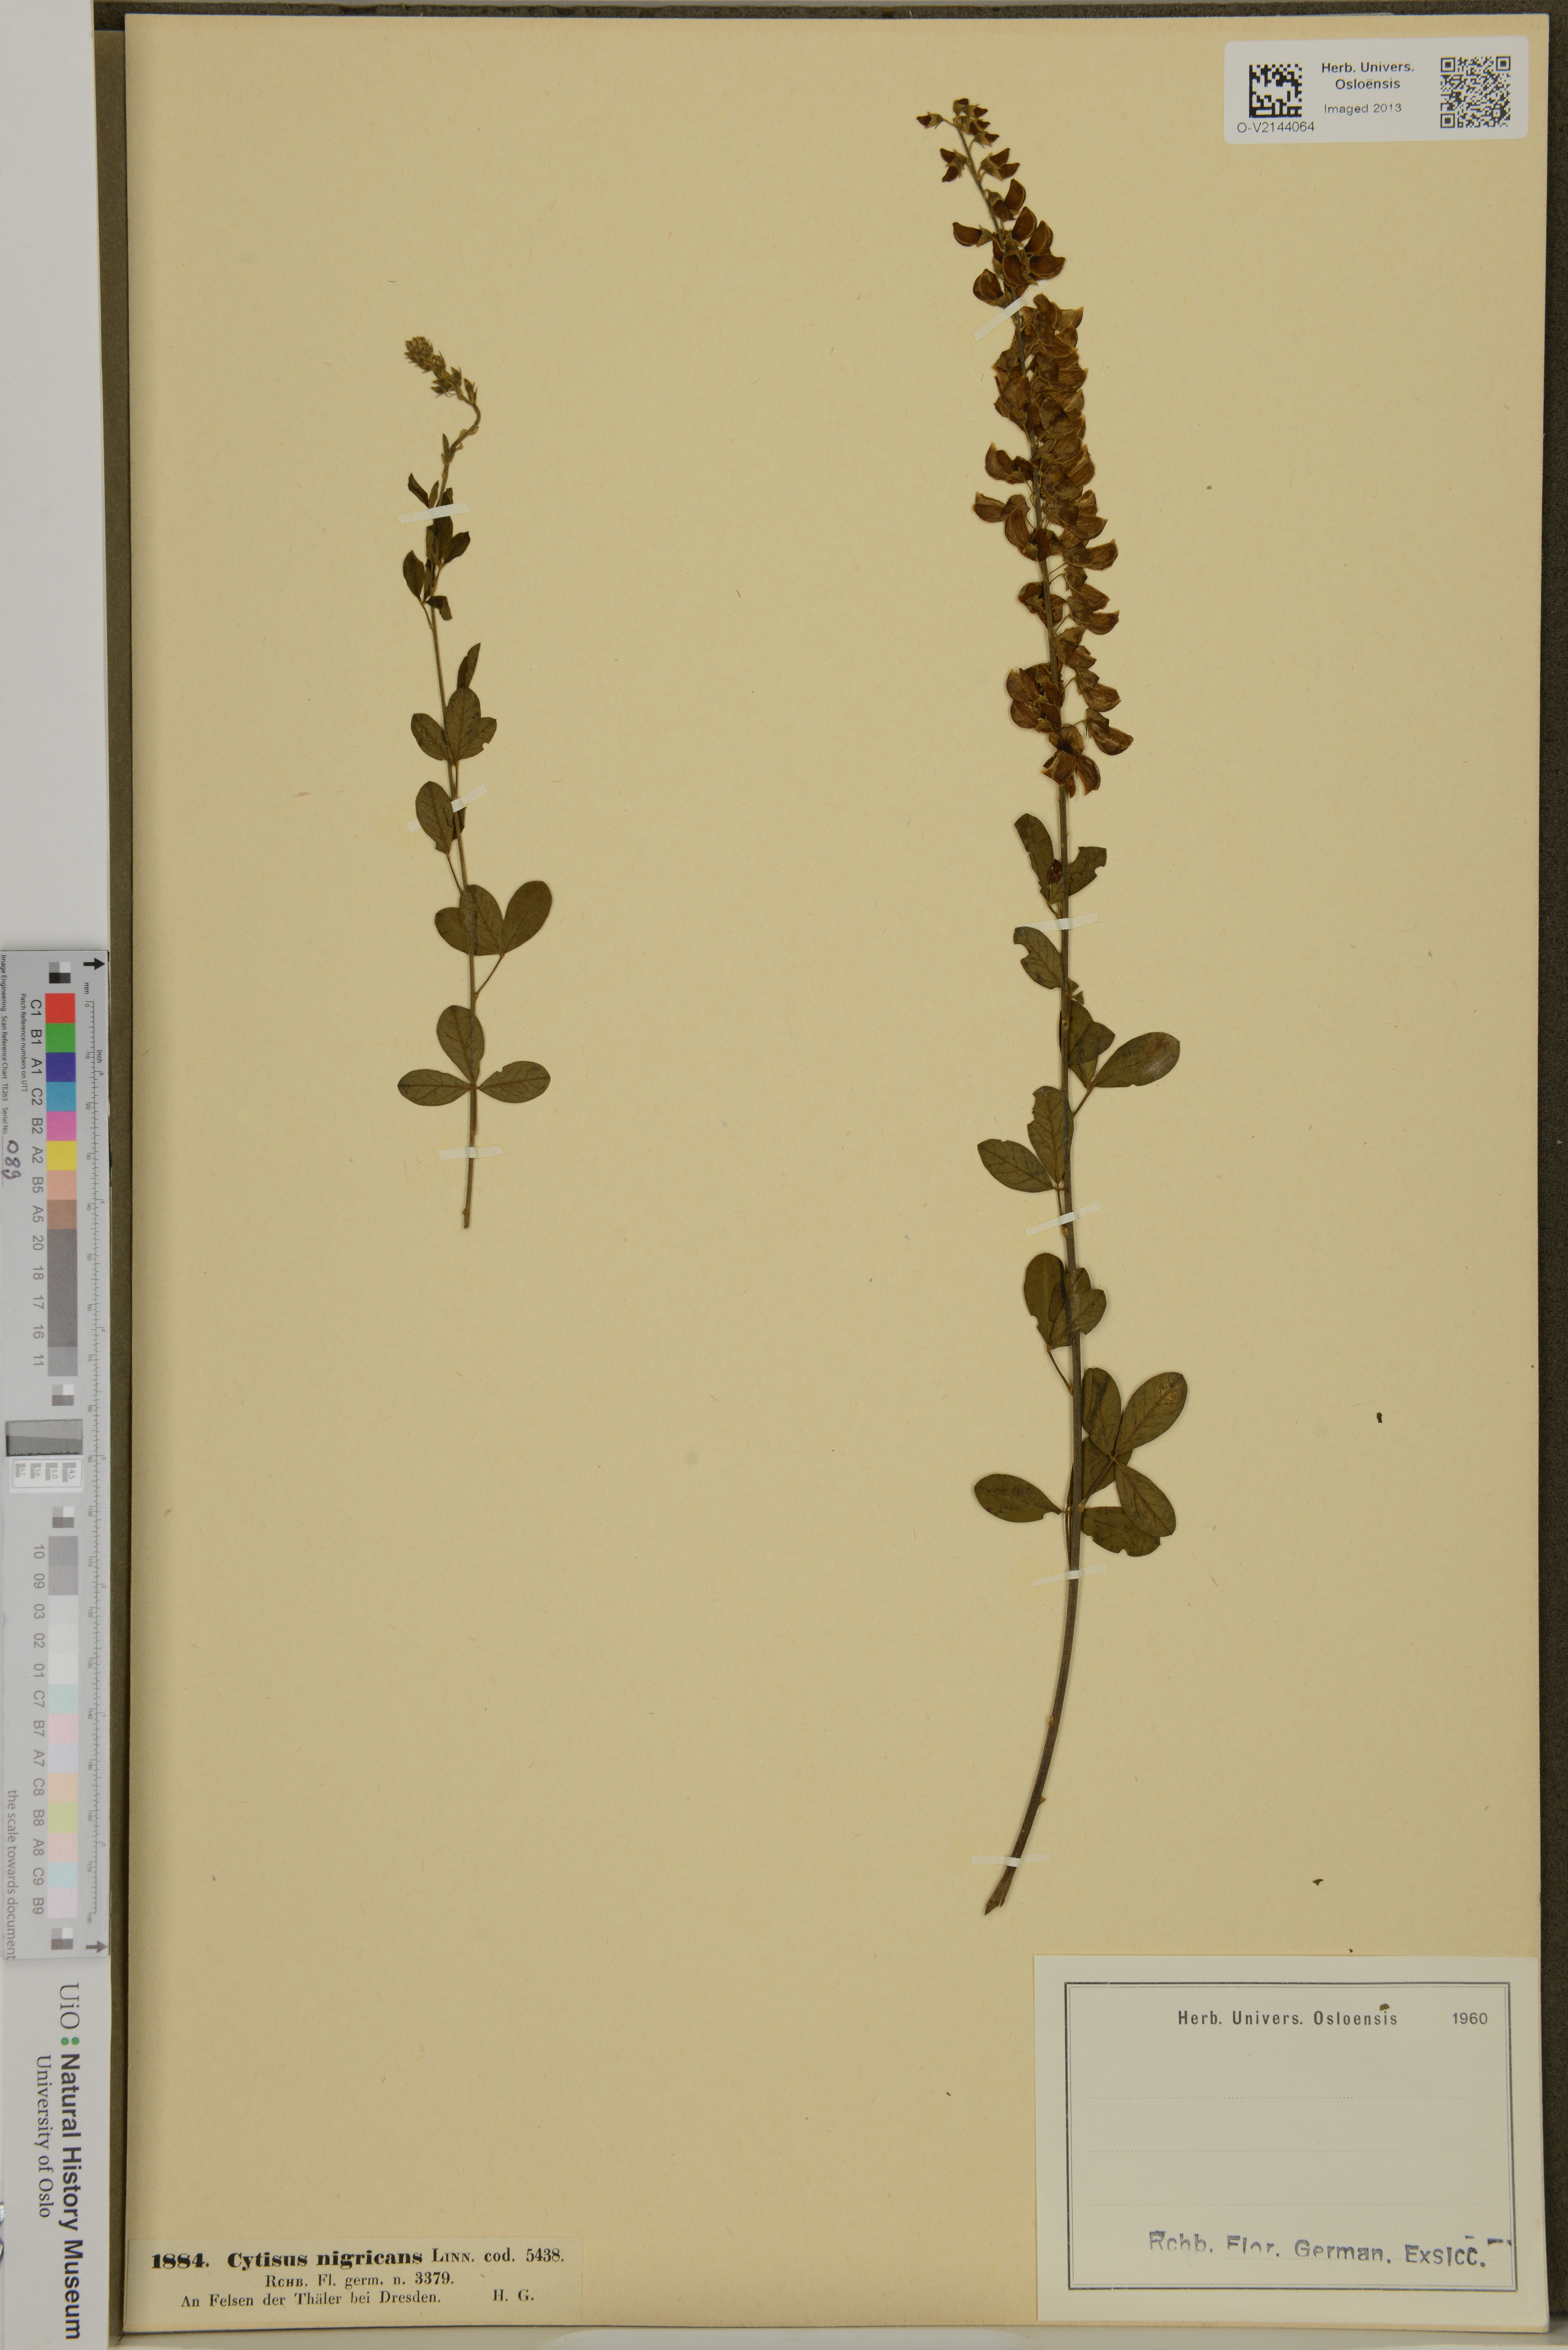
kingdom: Plantae
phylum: Tracheophyta
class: Magnoliopsida
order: Fabales
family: Fabaceae
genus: Cytisus
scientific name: Cytisus nigricans
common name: Black broom
